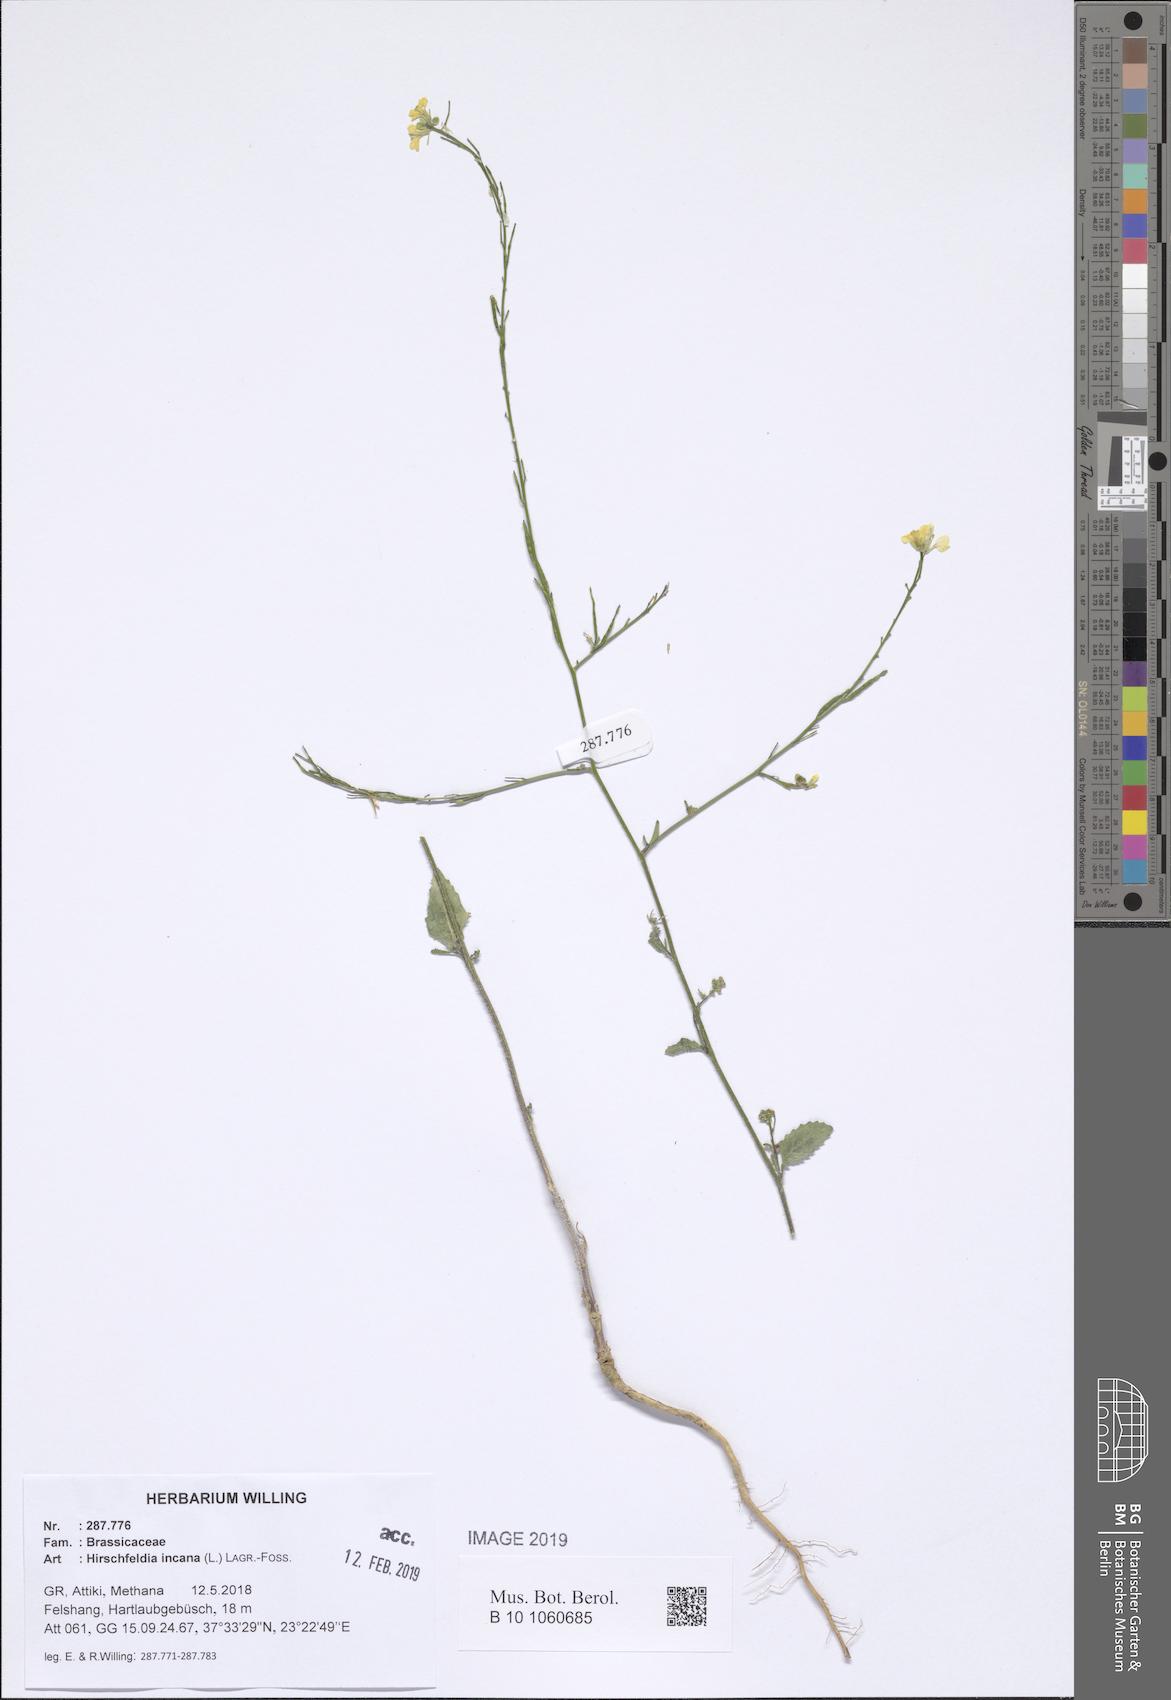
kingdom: Plantae
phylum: Tracheophyta
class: Magnoliopsida
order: Brassicales
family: Brassicaceae
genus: Hirschfeldia
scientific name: Hirschfeldia incana
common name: Hoary mustard
